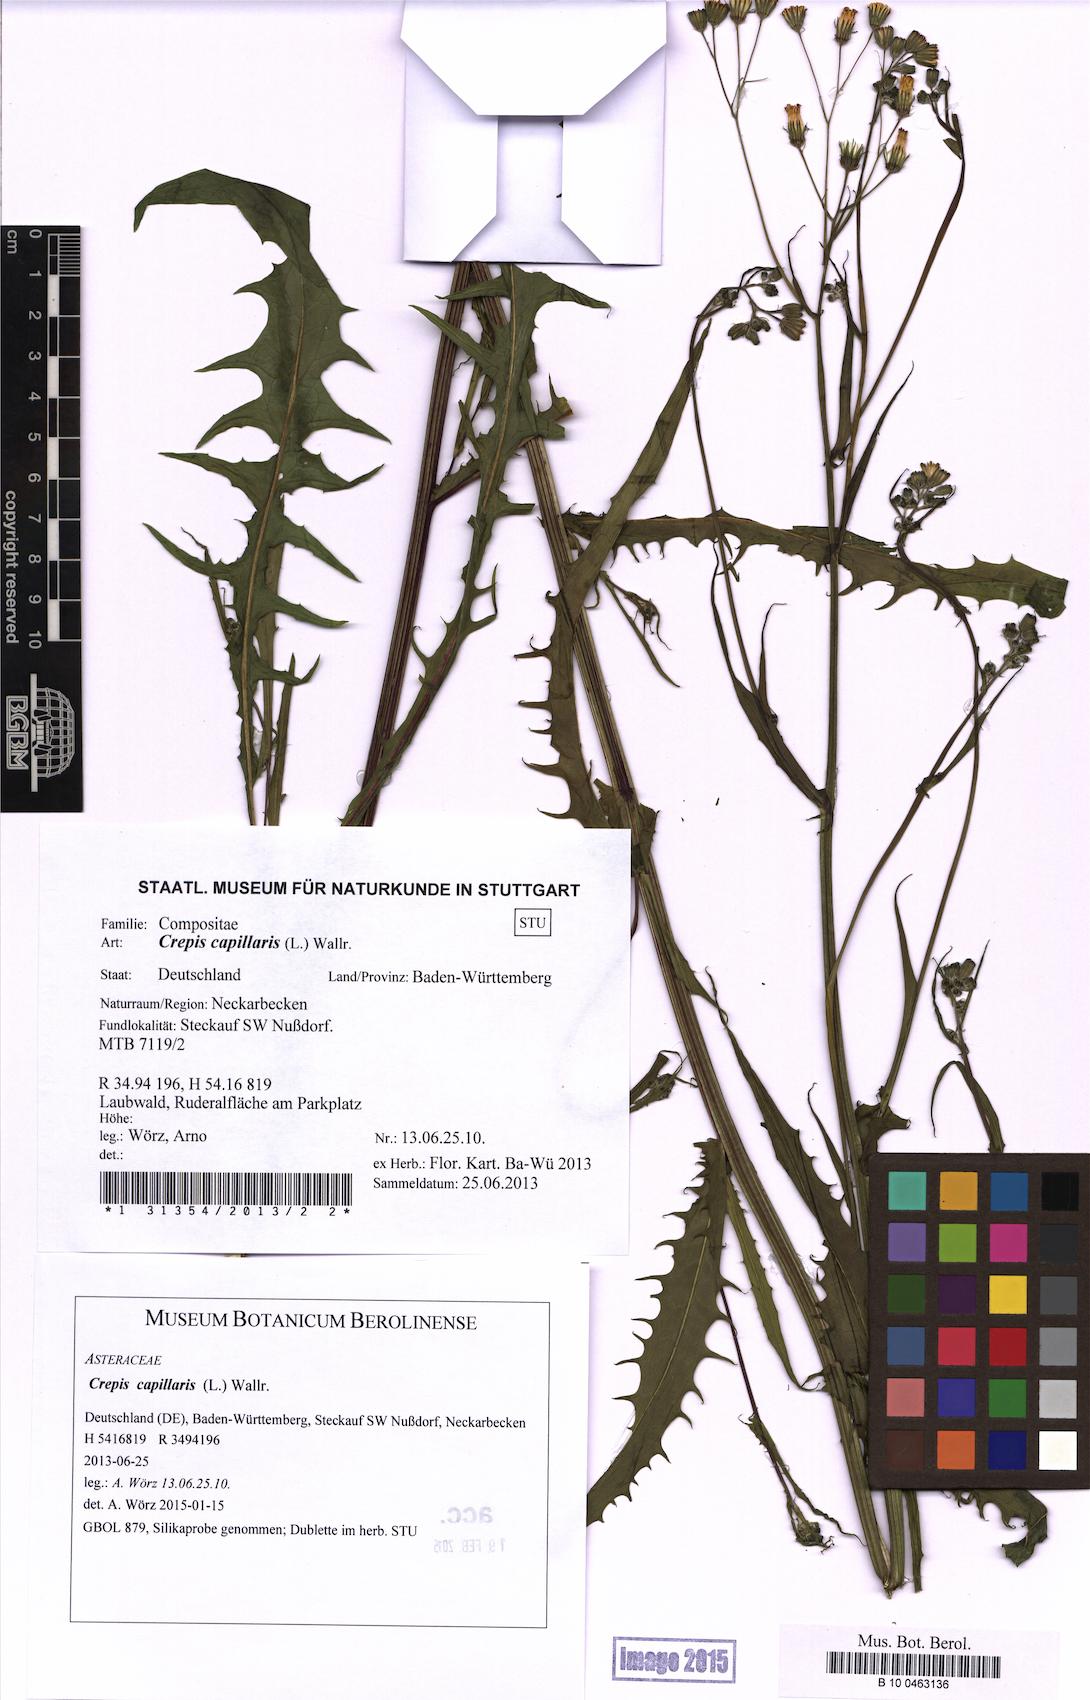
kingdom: Plantae
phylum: Tracheophyta
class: Magnoliopsida
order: Asterales
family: Asteraceae
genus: Crepis
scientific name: Crepis capillaris
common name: Smooth hawksbeard
